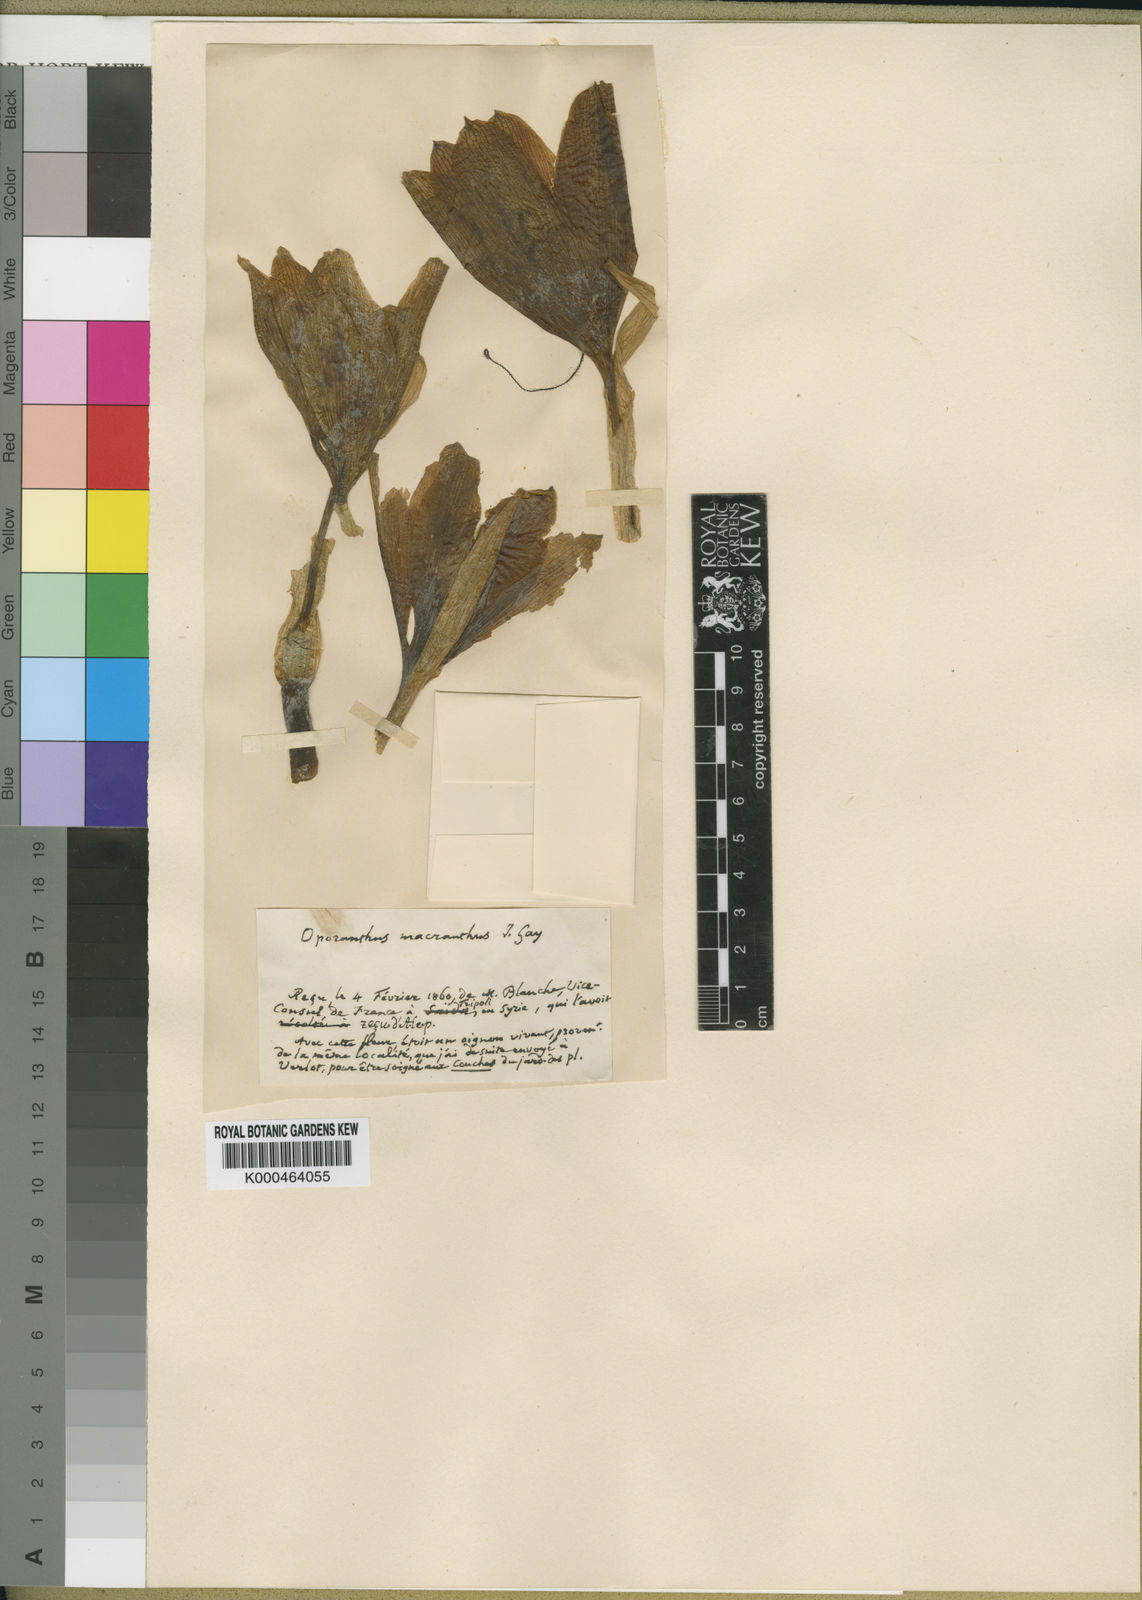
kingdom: Plantae
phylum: Tracheophyta
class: Liliopsida
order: Asparagales
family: Amaryllidaceae
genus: Sternbergia
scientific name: Sternbergia
